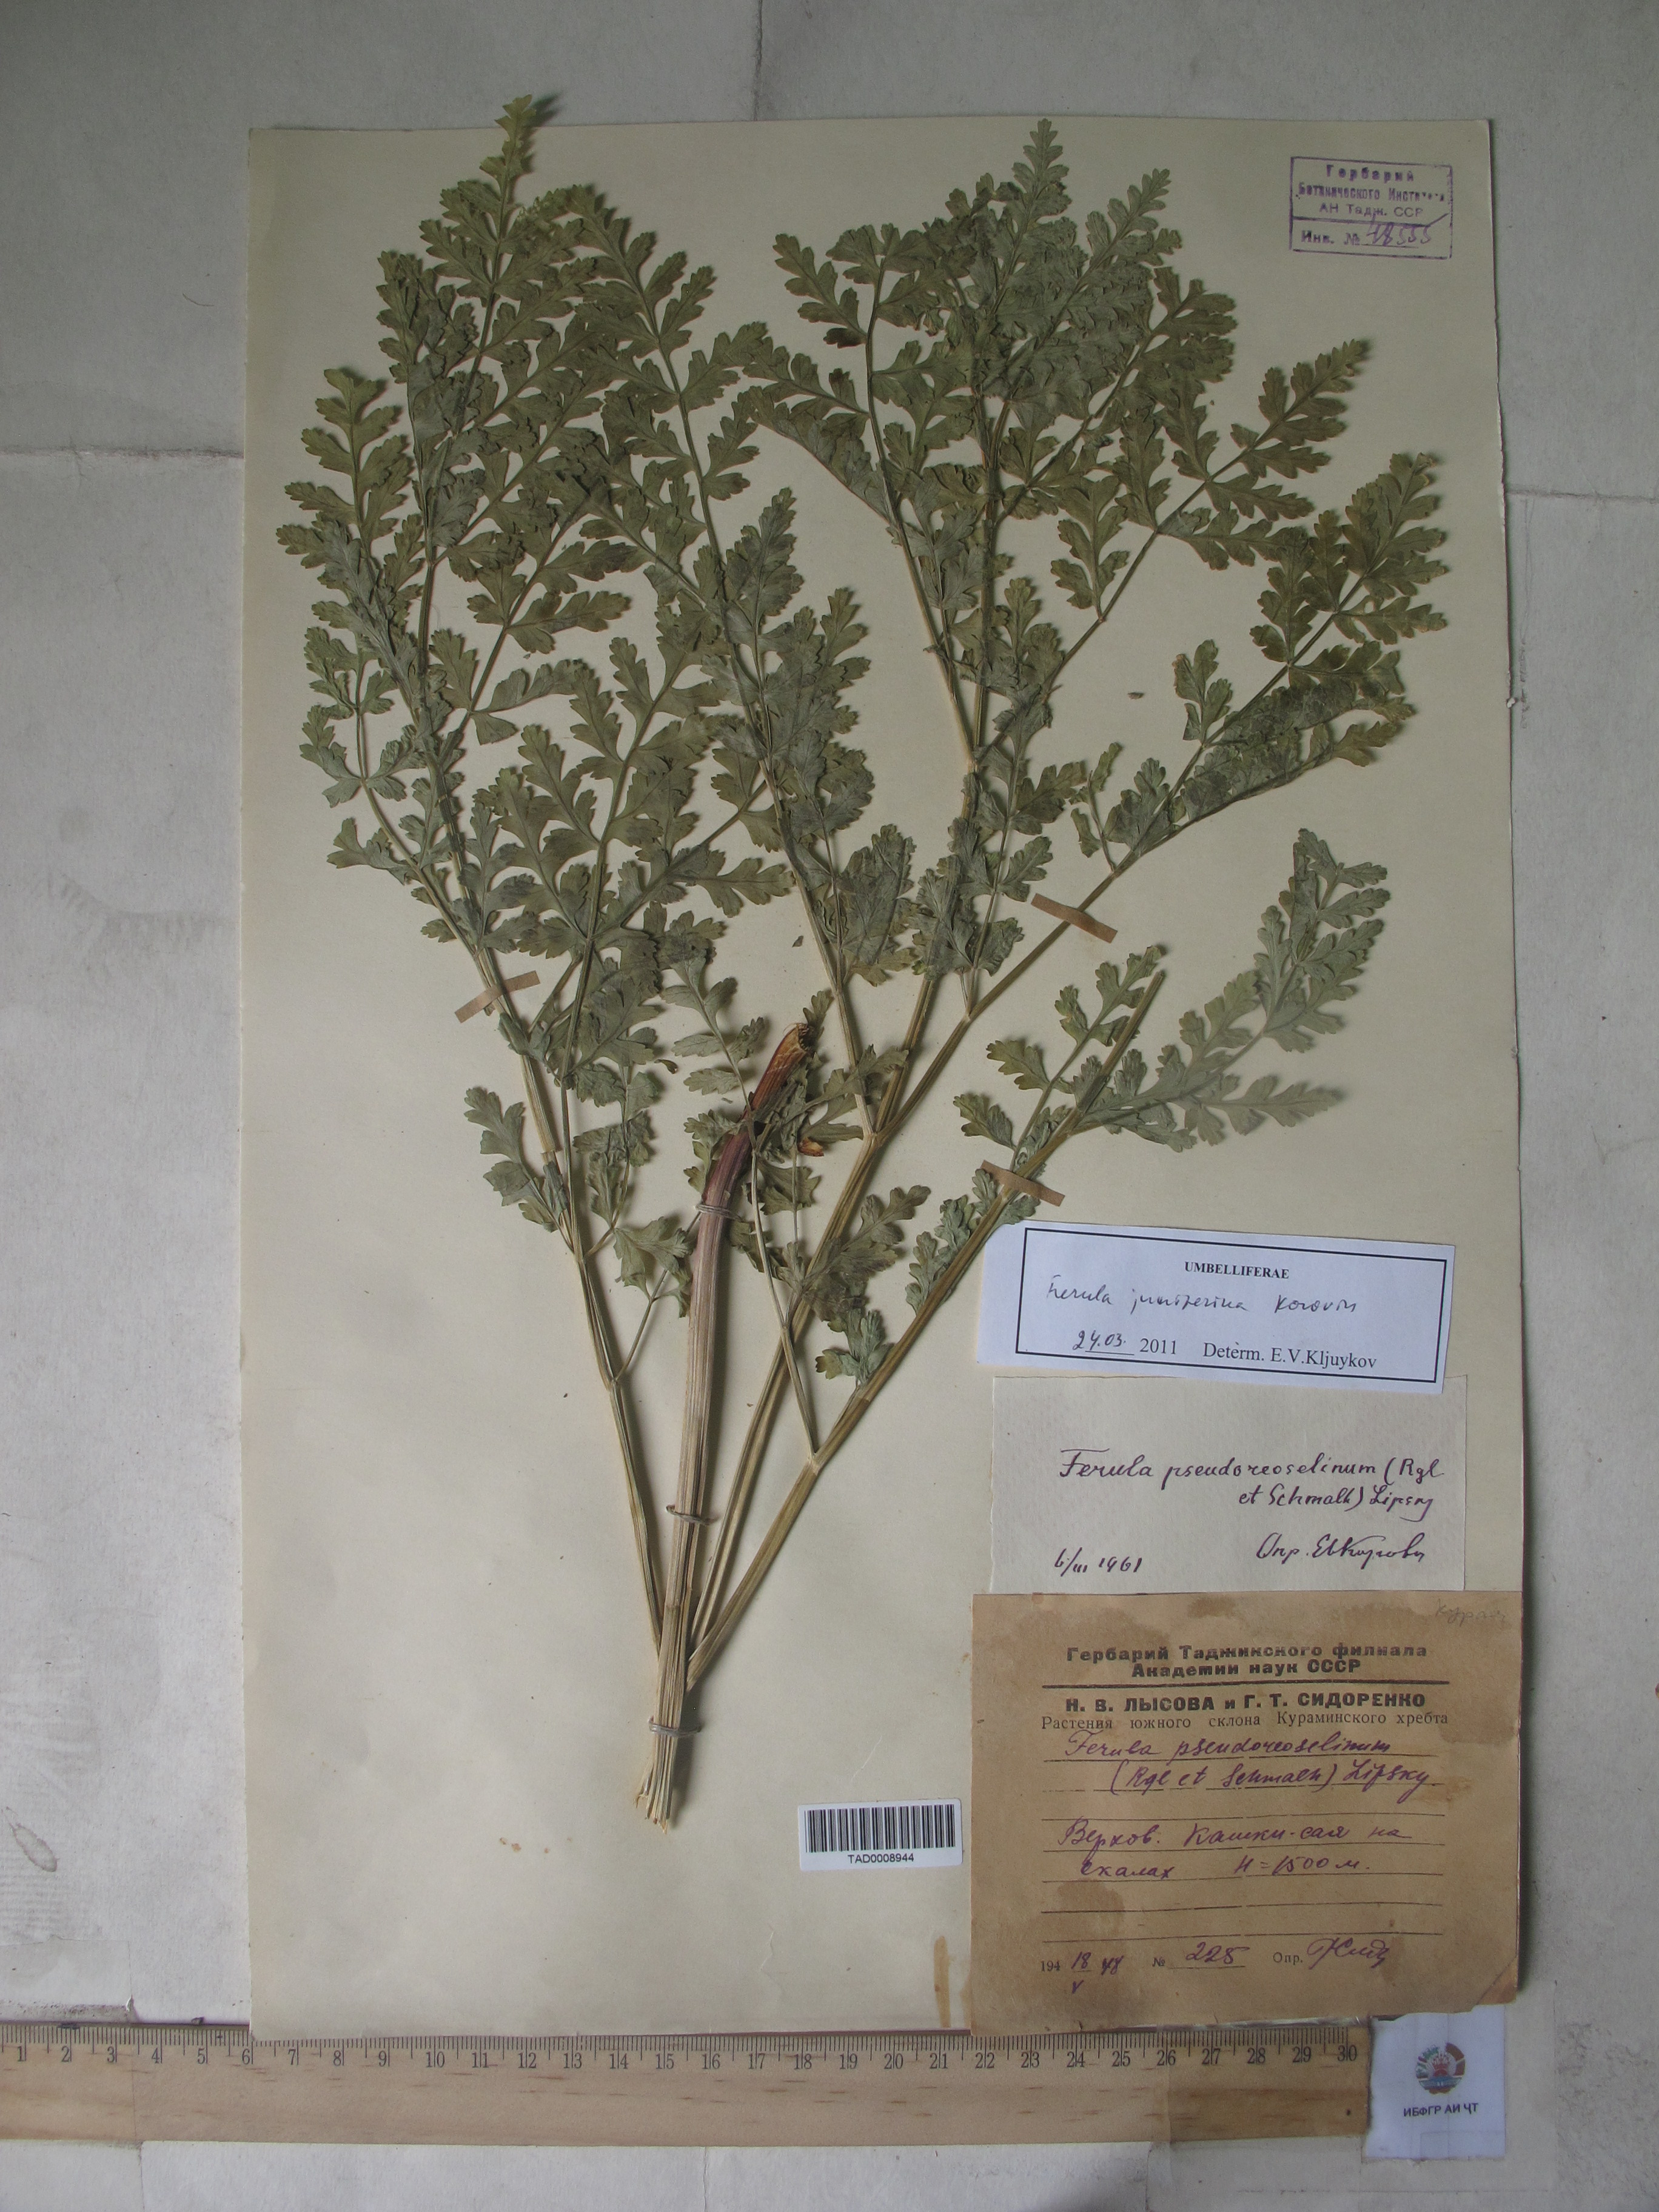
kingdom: Plantae
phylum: Tracheophyta
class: Magnoliopsida
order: Apiales
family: Apiaceae
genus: Ferula
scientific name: Ferula kirialovii
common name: Kumot
